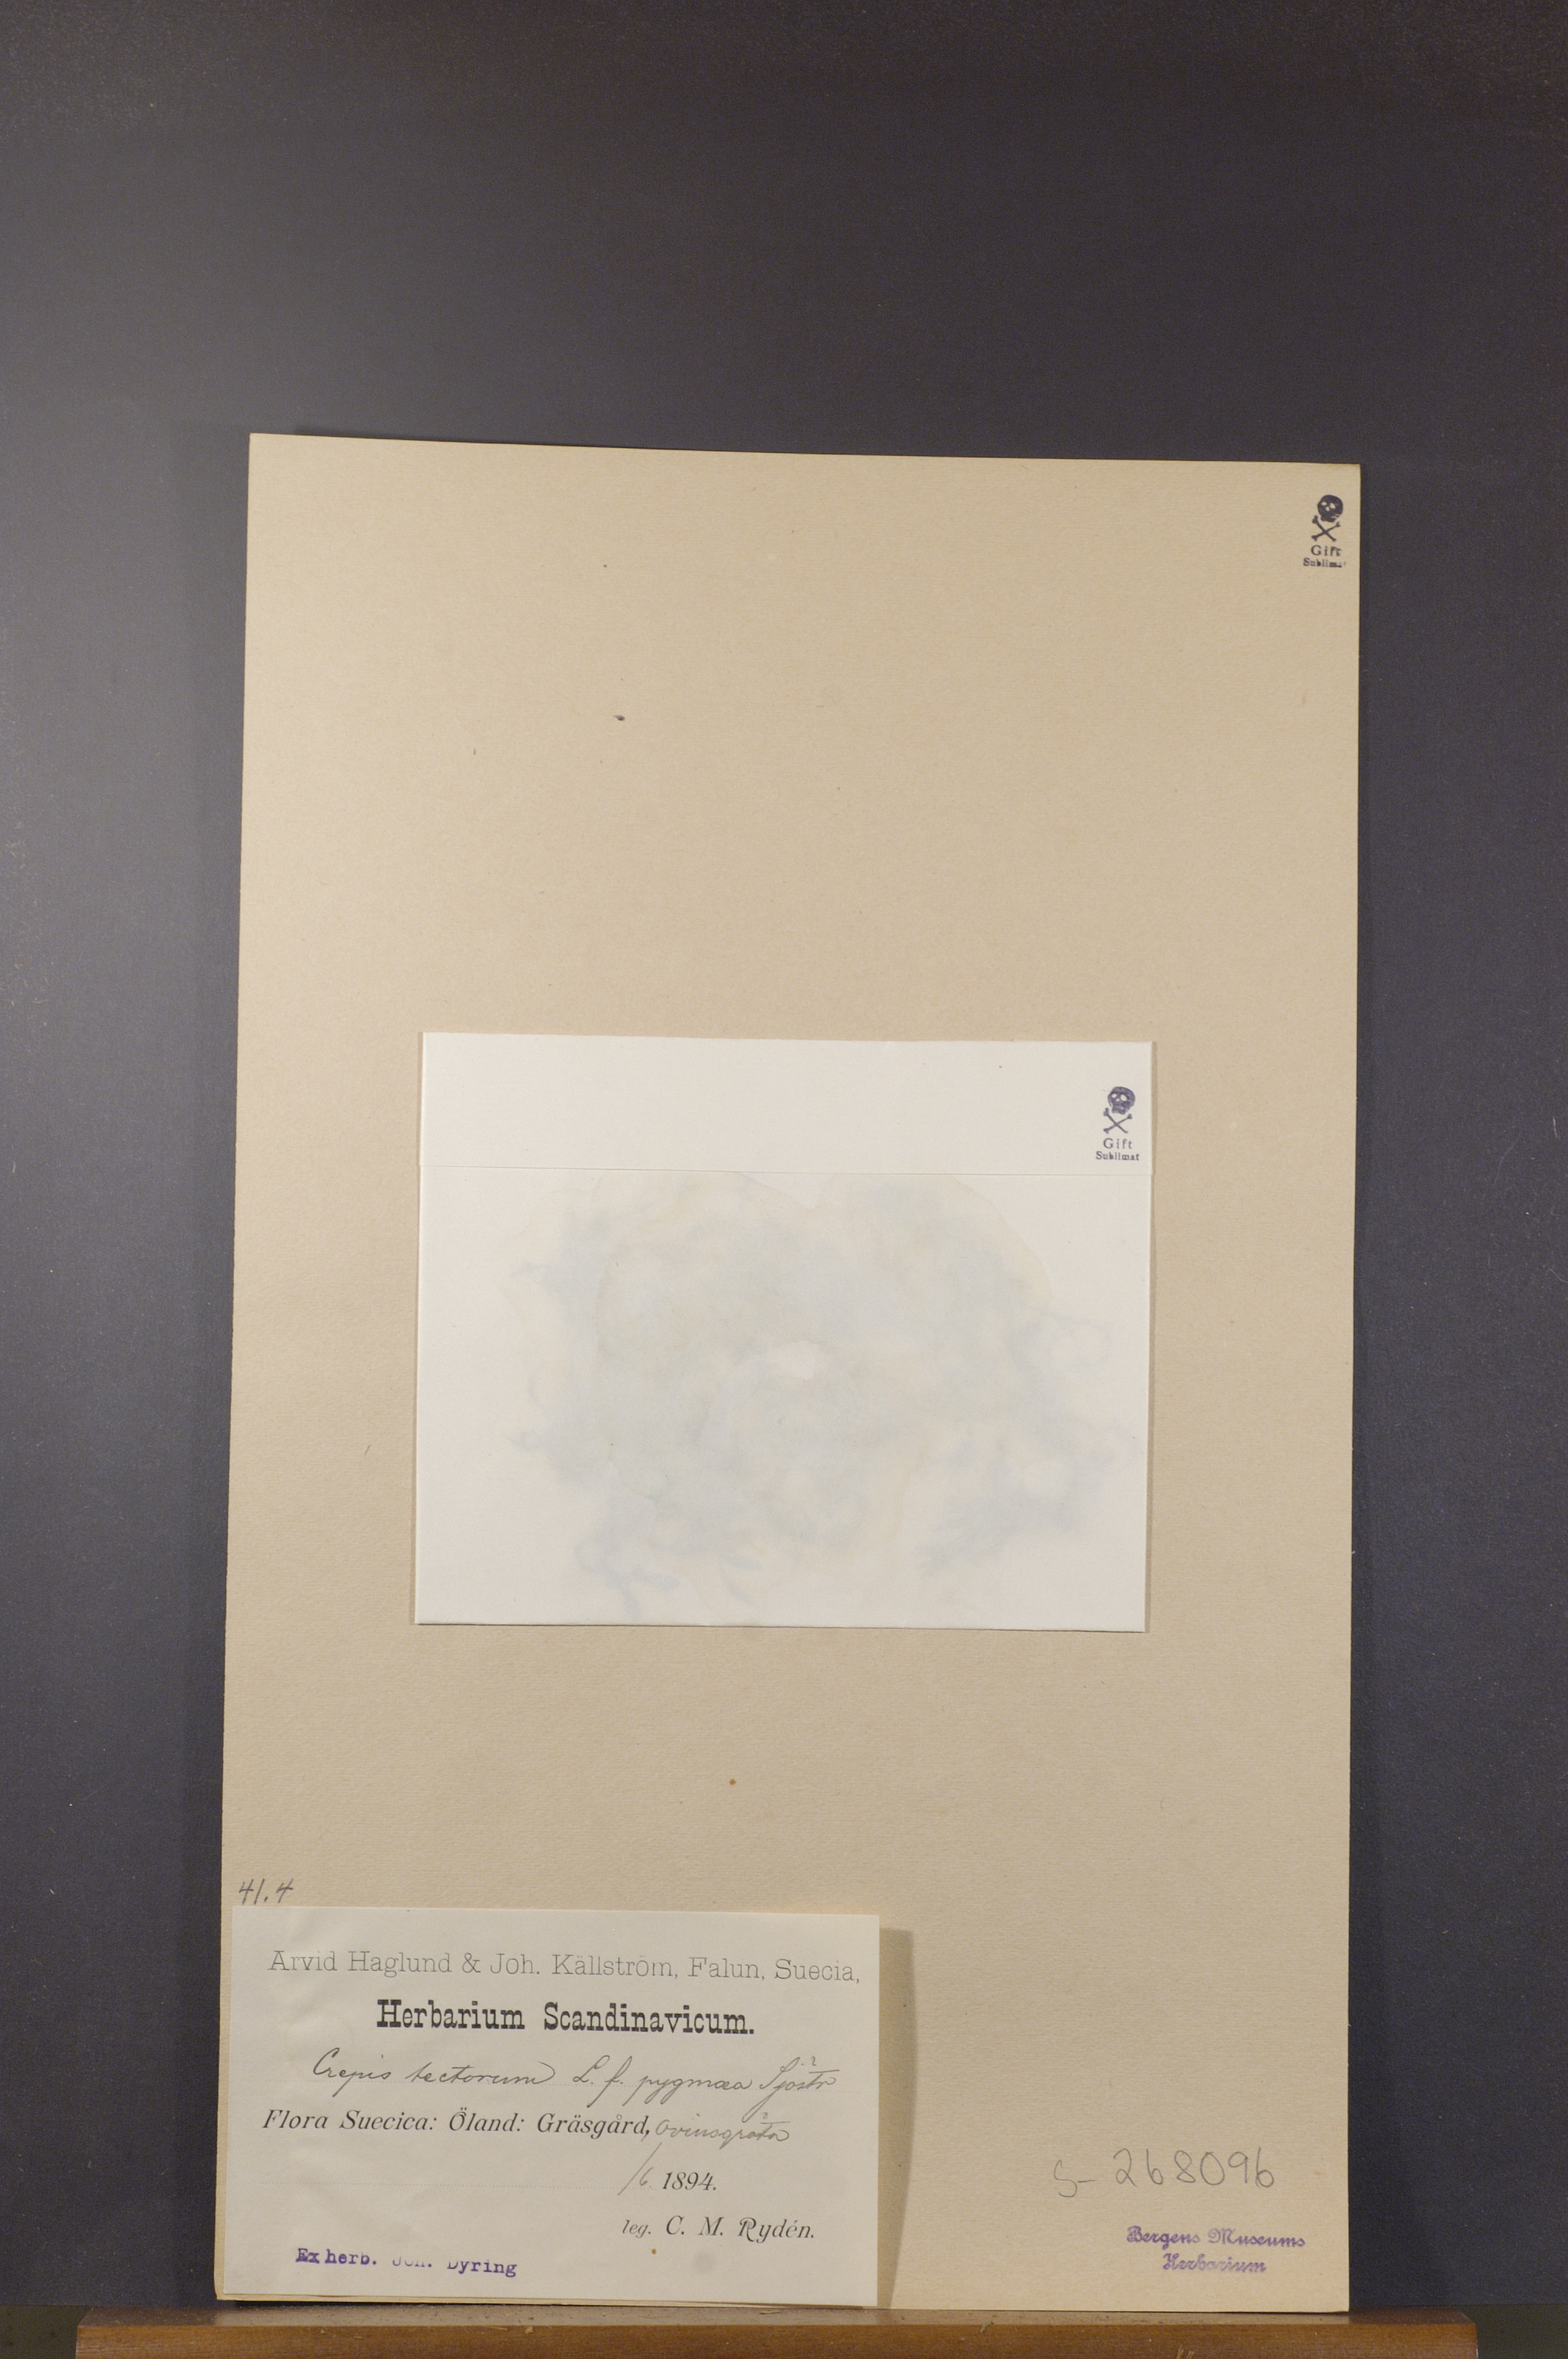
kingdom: Plantae
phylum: Tracheophyta
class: Magnoliopsida
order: Asterales
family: Asteraceae
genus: Crepis
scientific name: Crepis tectorum
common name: Narrow-leaved hawk's-beard
